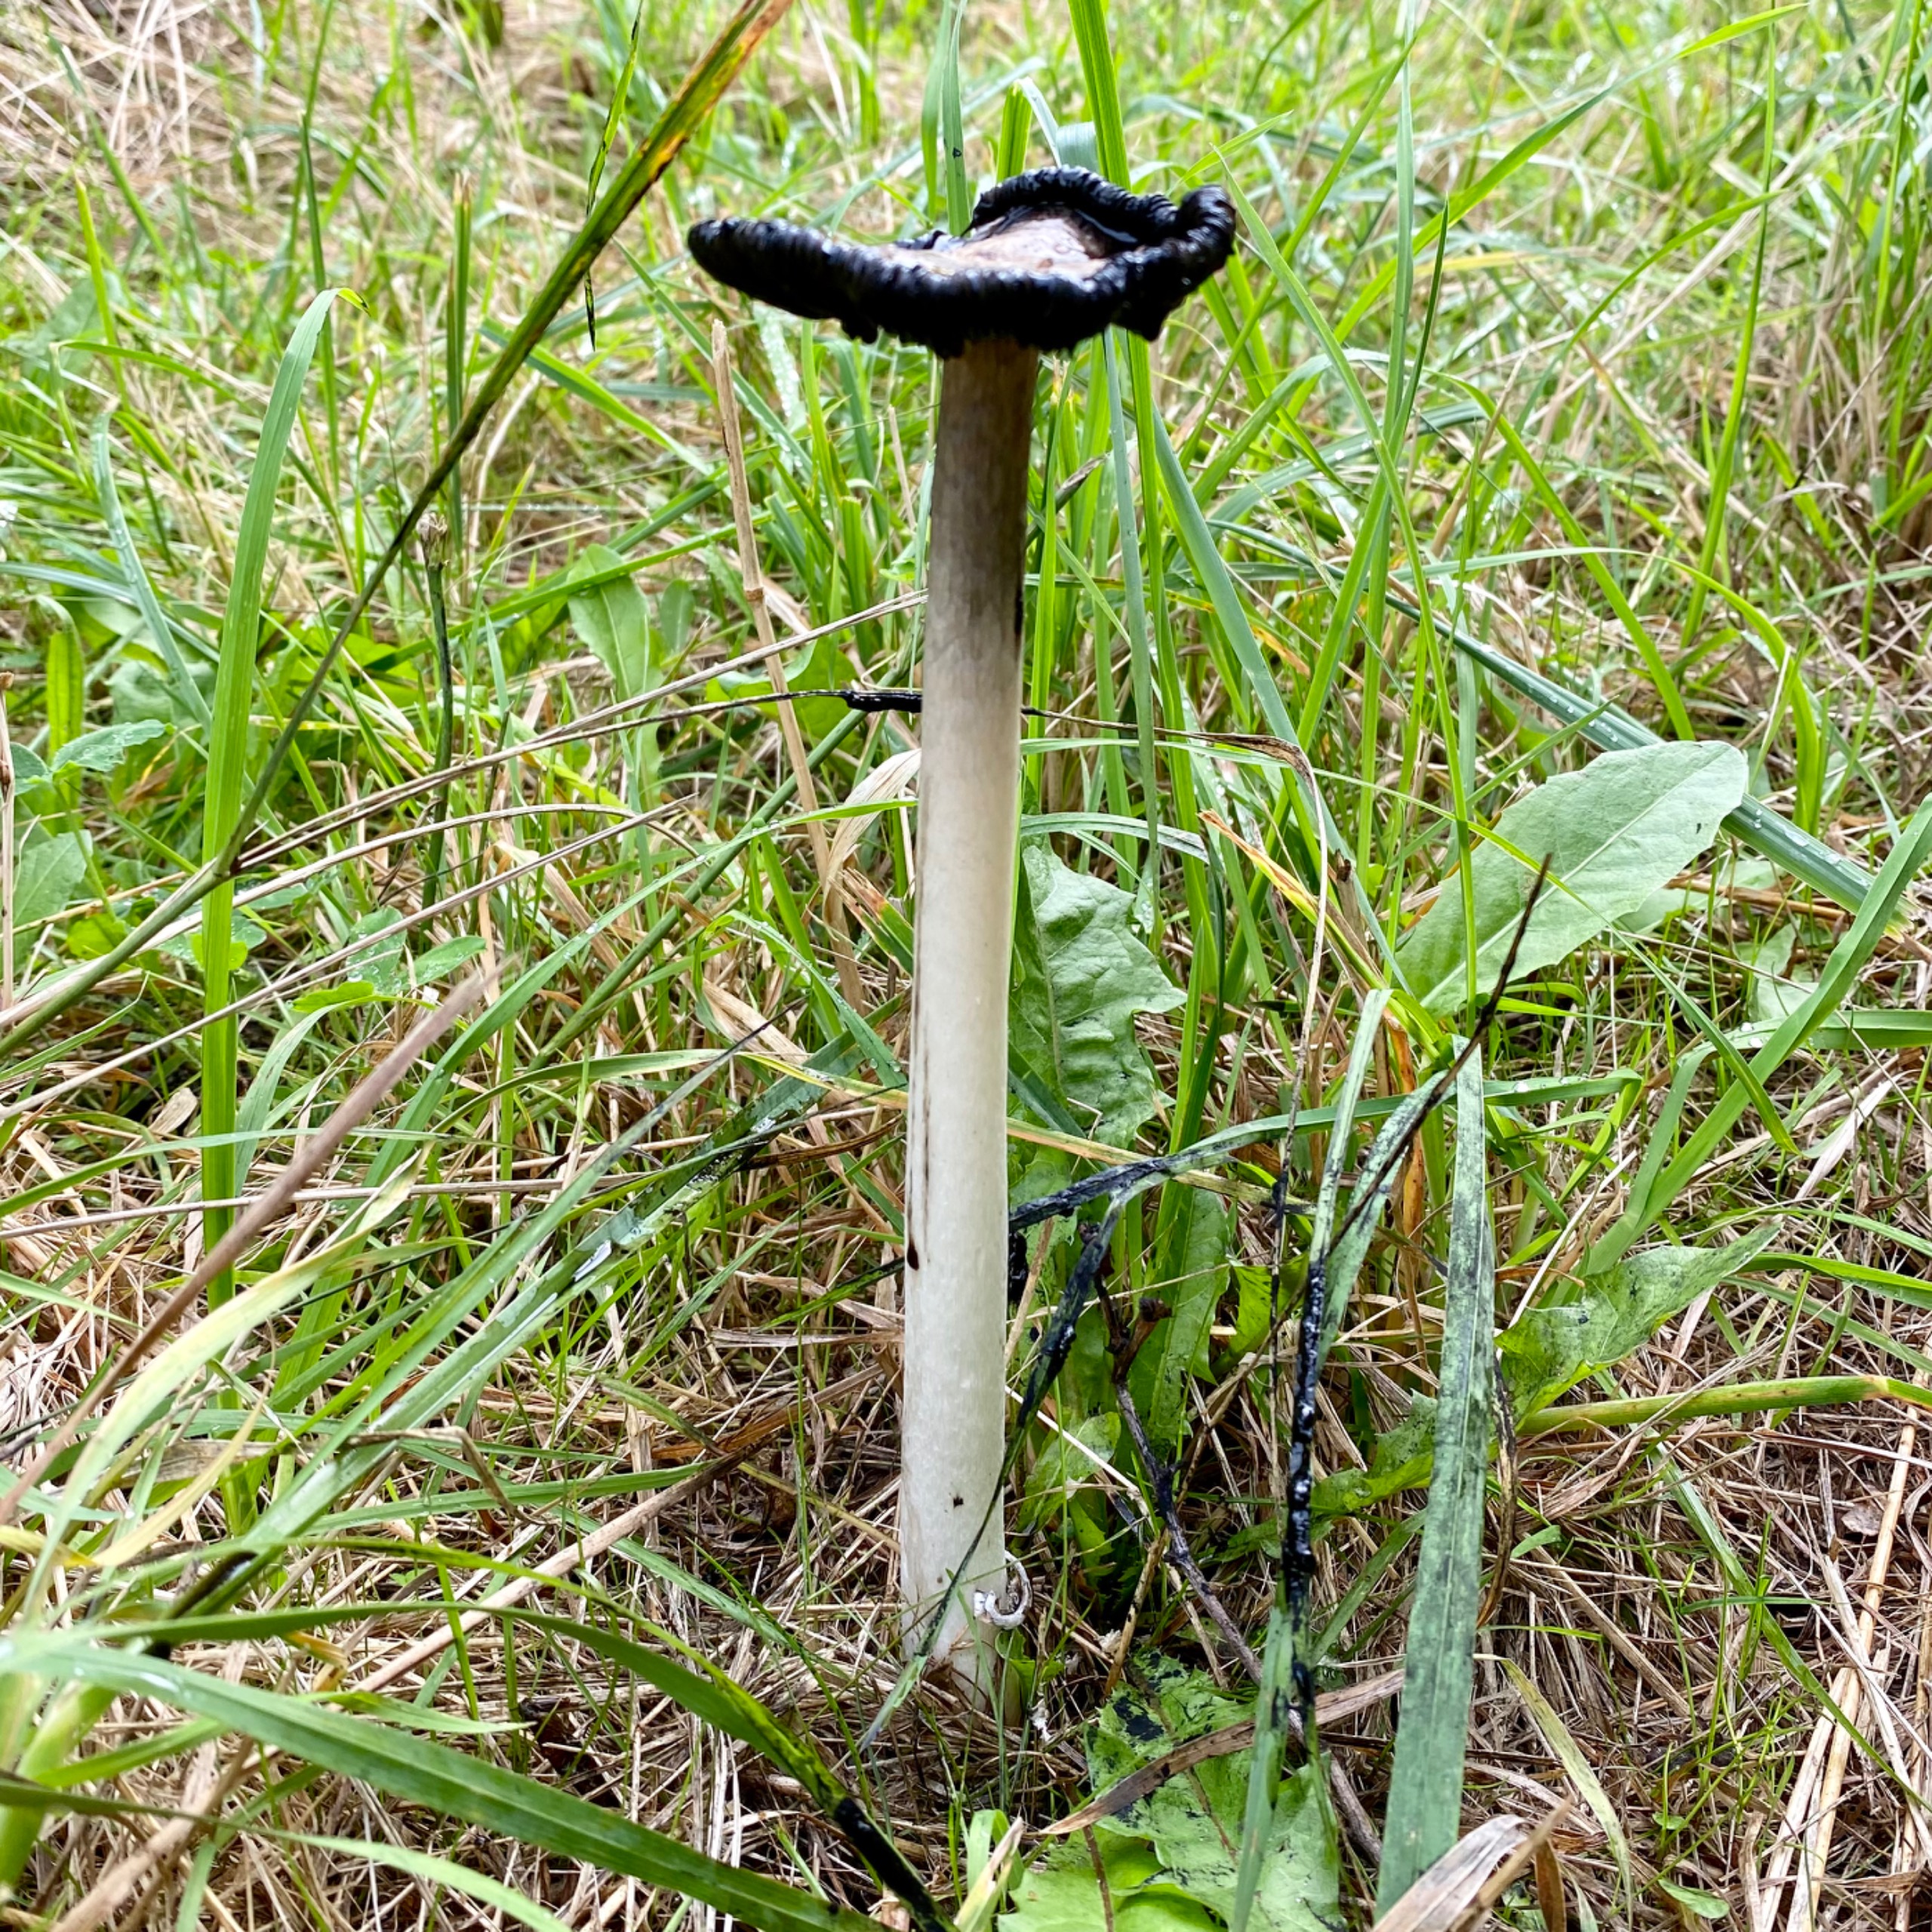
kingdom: Fungi
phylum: Basidiomycota
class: Agaricomycetes
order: Agaricales
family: Agaricaceae
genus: Coprinus
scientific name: Coprinus comatus
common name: Stor parykhat
